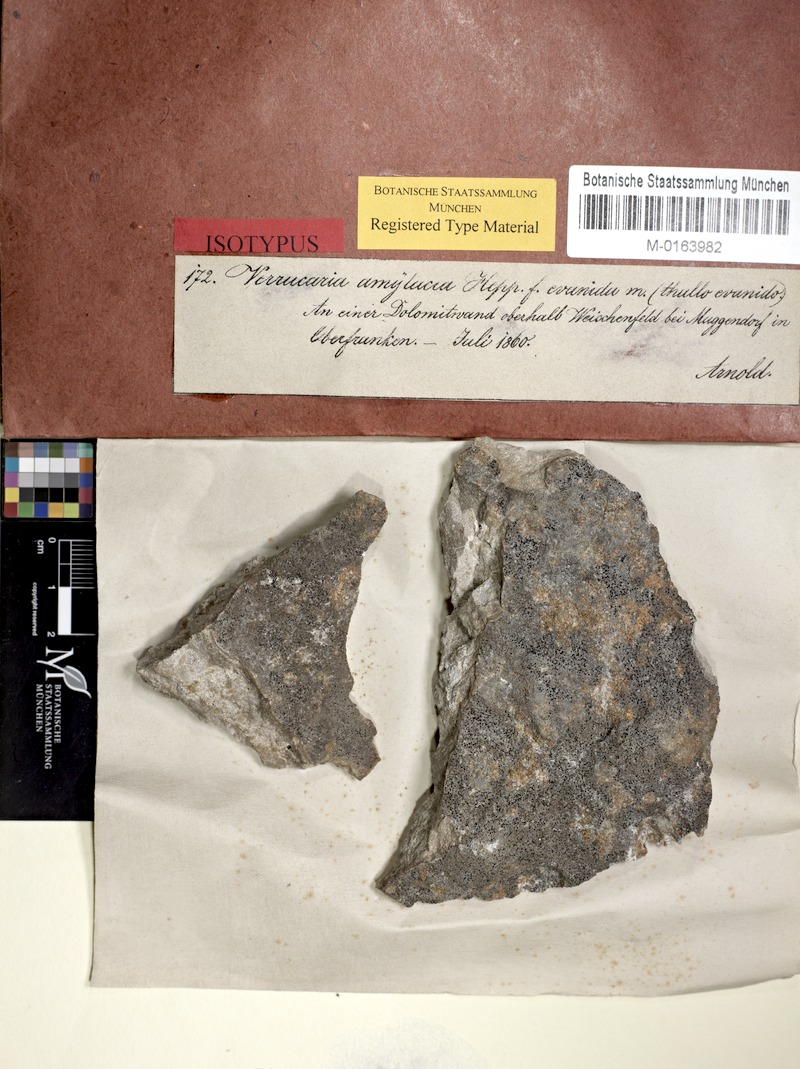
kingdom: Fungi
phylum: Ascomycota
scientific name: Ascomycota
